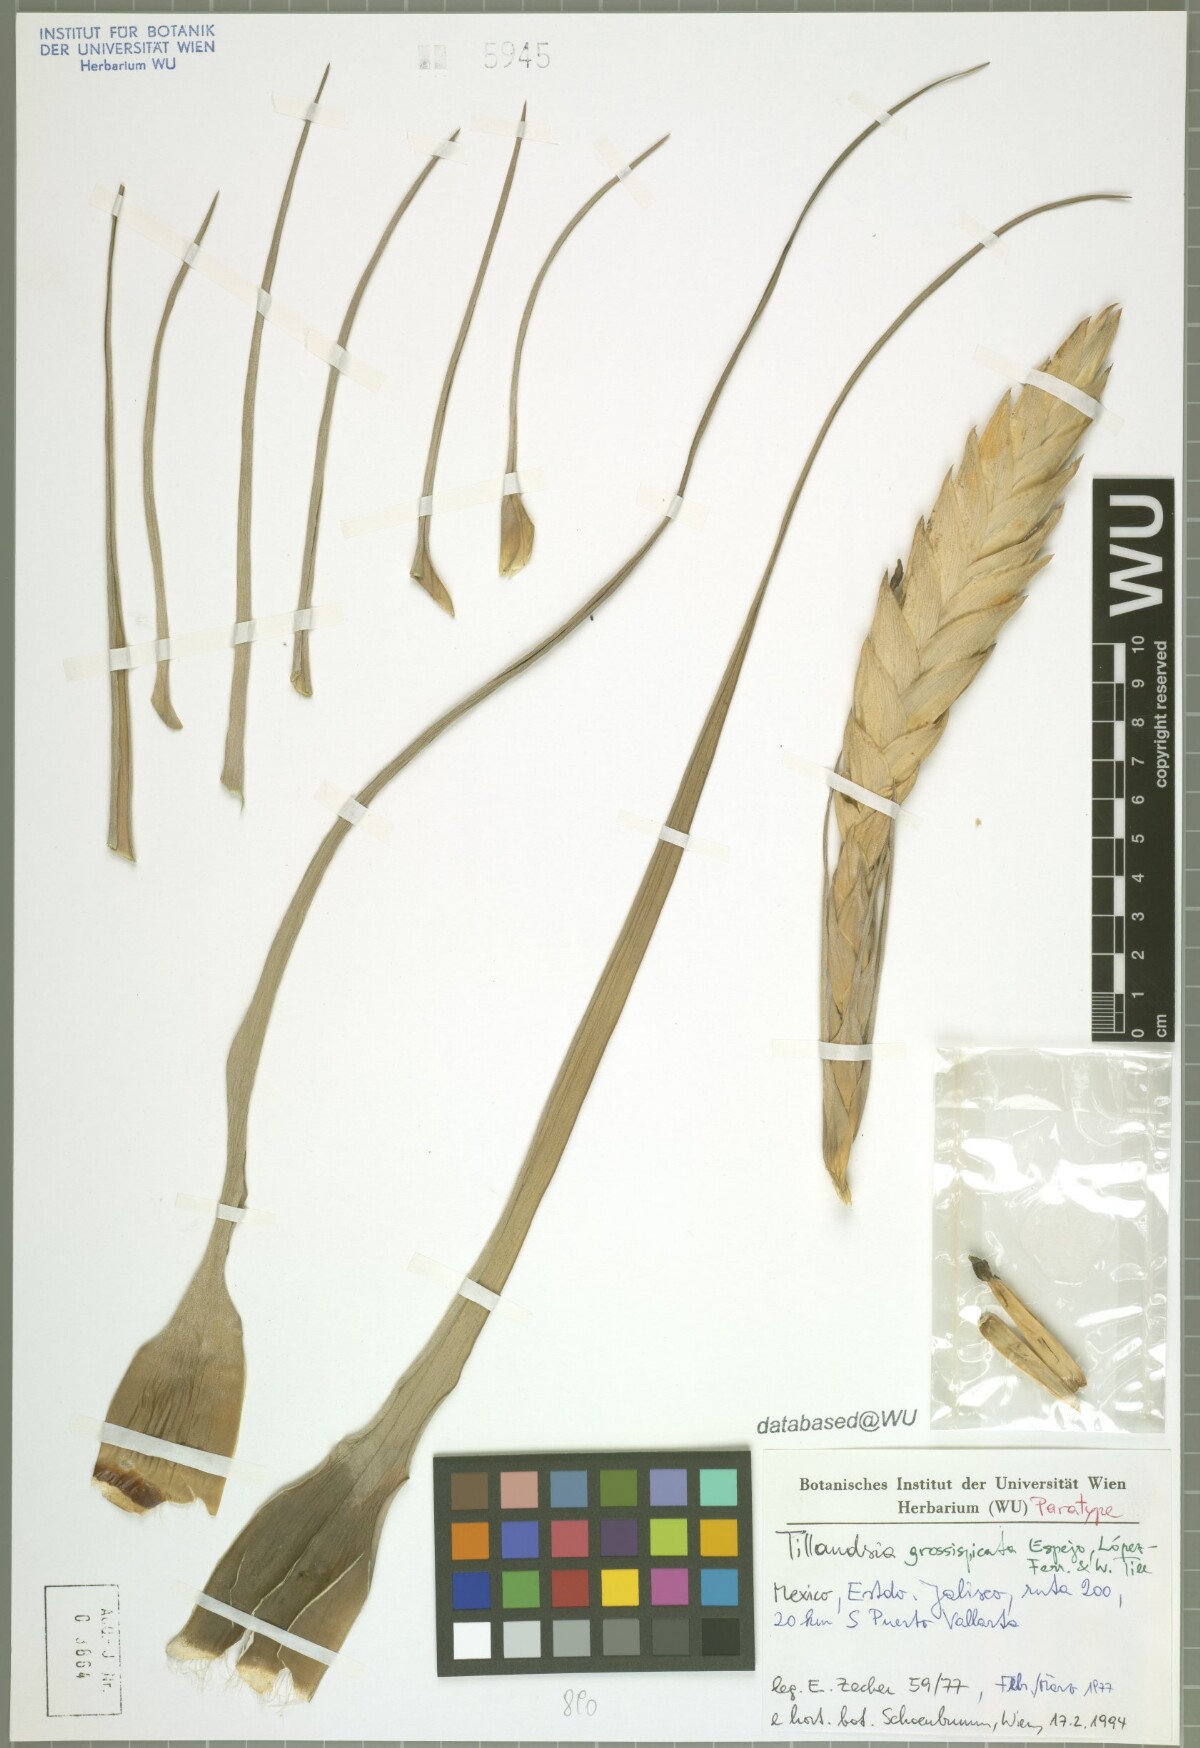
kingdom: Plantae
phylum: Tracheophyta
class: Liliopsida
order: Poales
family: Bromeliaceae
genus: Tillandsia
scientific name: Tillandsia grossispicata
